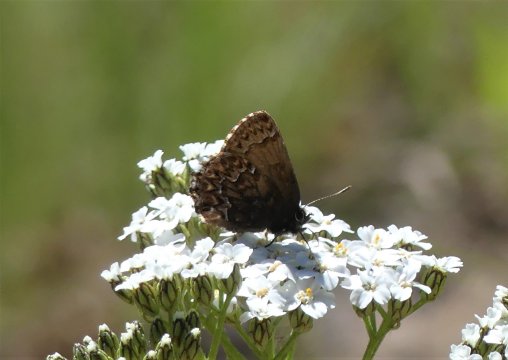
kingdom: Animalia
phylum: Arthropoda
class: Insecta
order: Lepidoptera
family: Lycaenidae
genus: Incisalia
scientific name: Incisalia eryphon
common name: Western Pine Elfin
